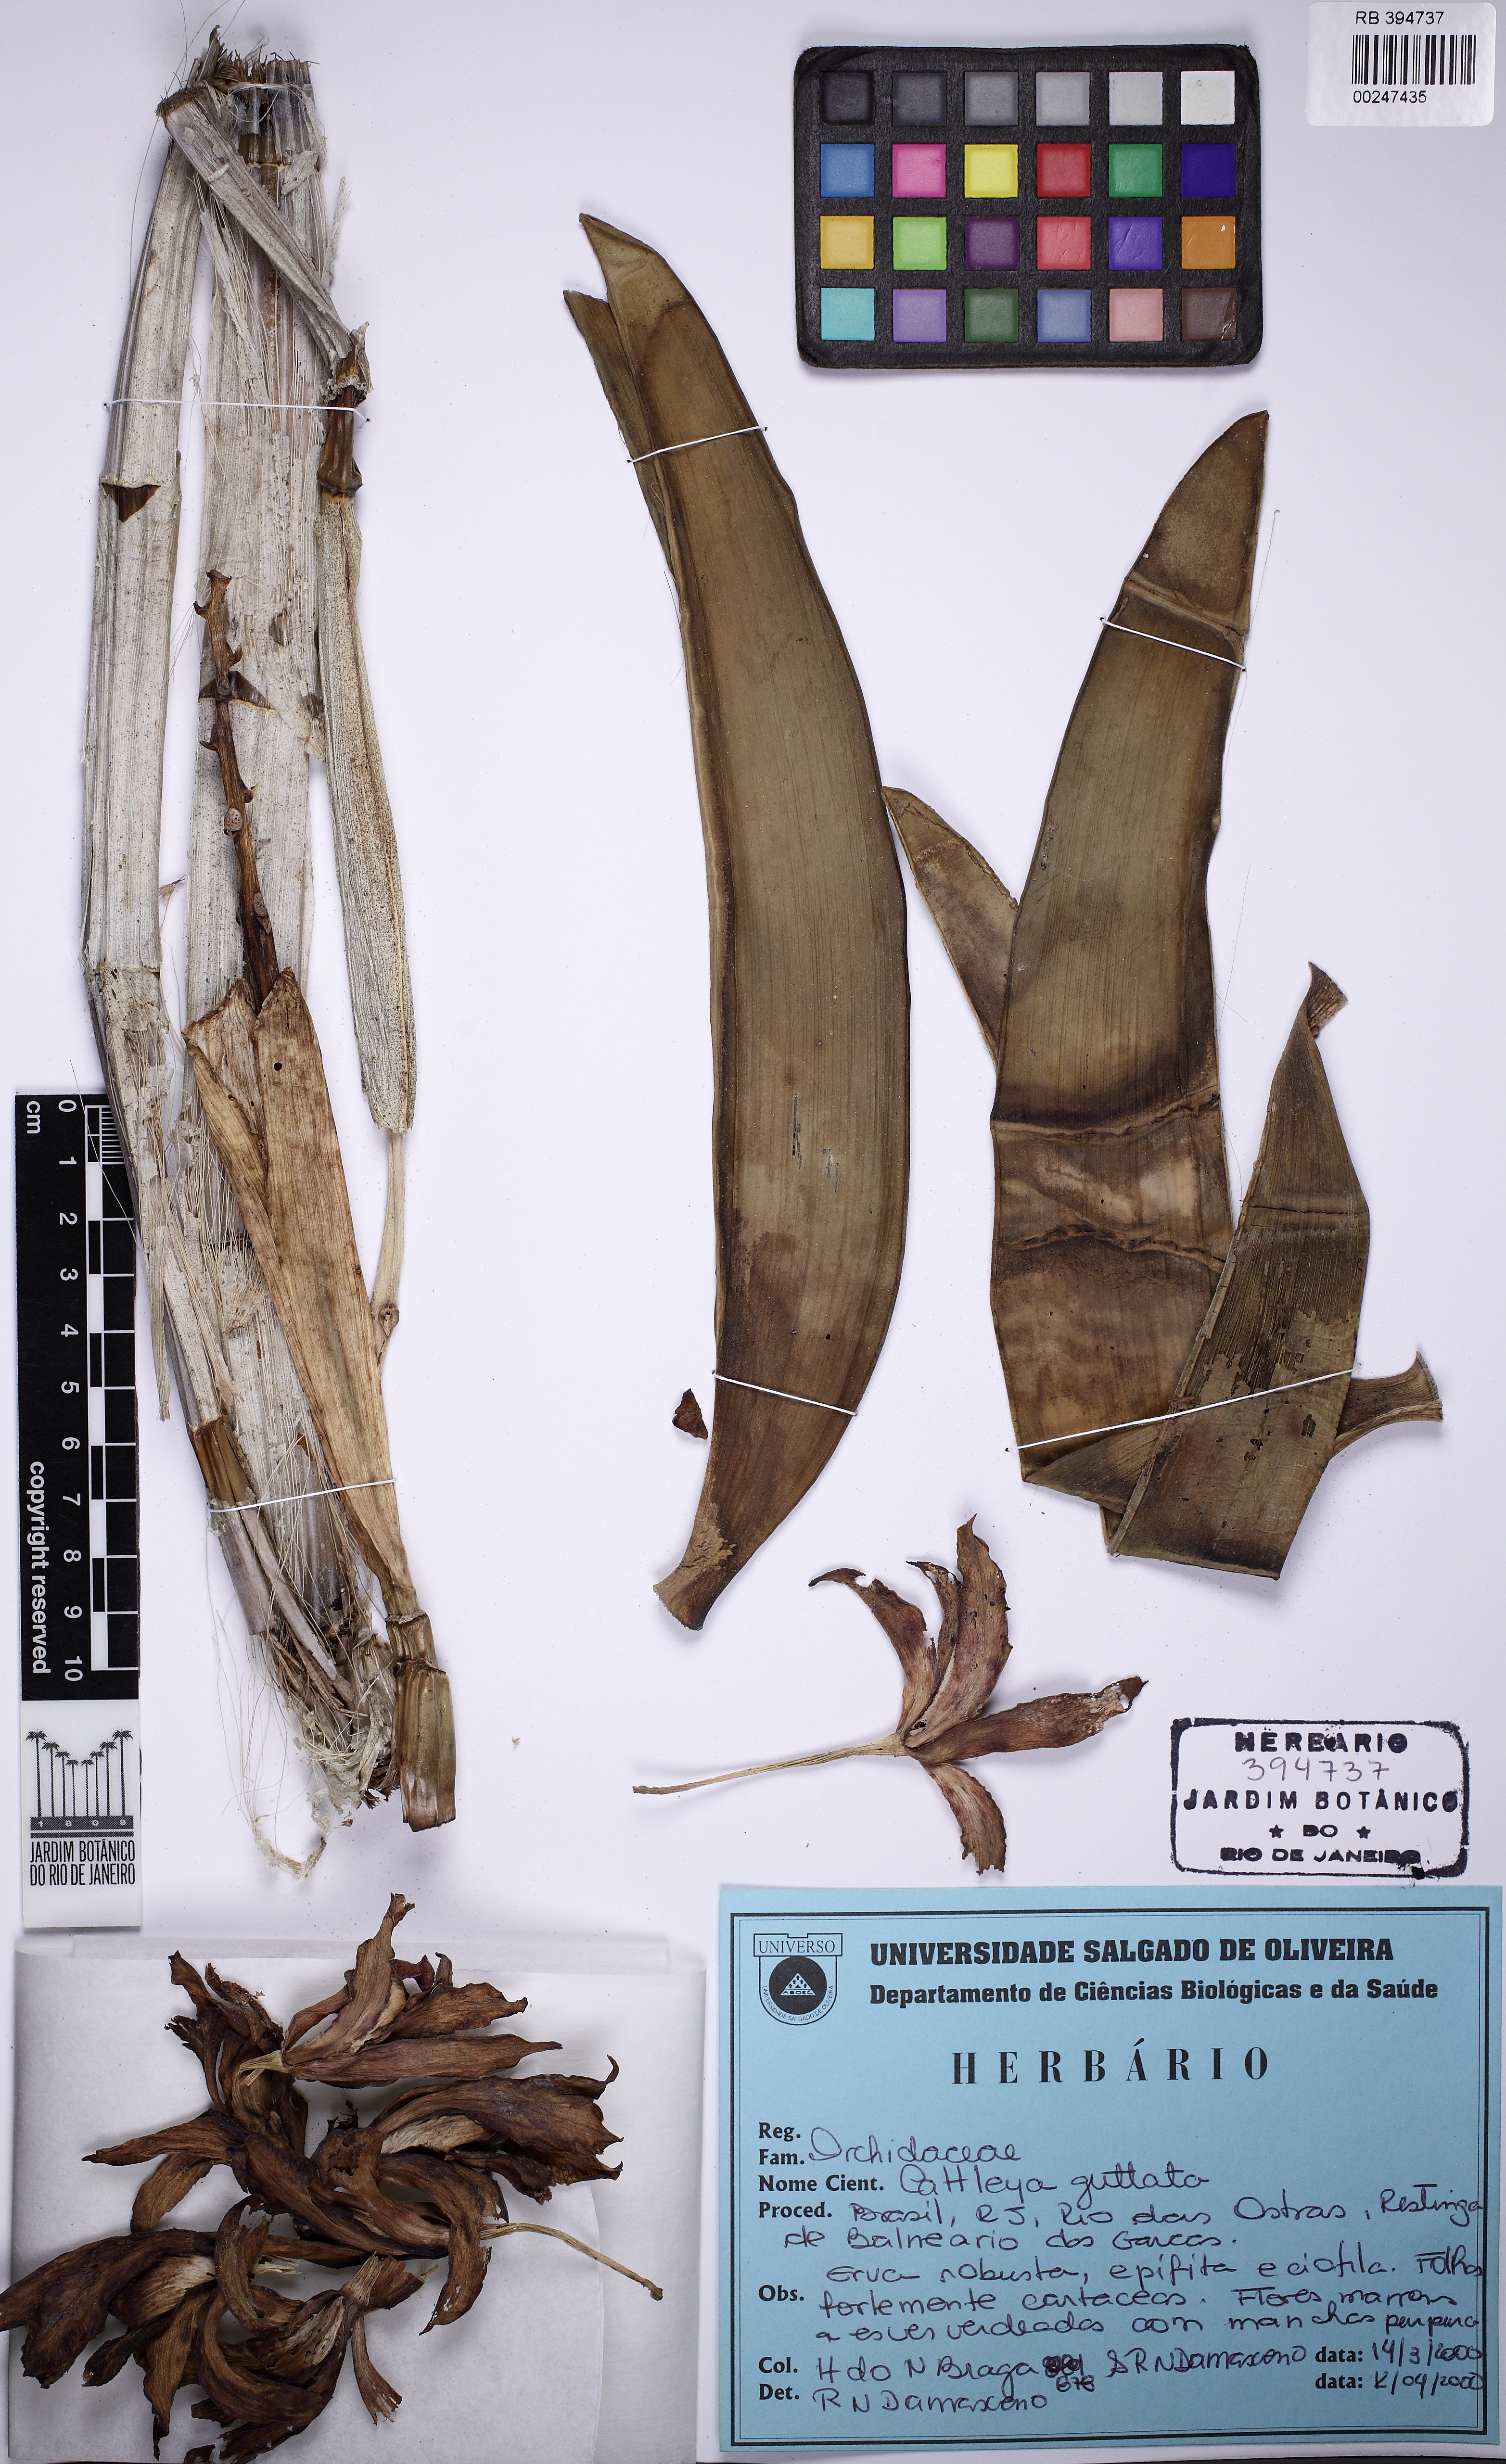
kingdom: Plantae
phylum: Tracheophyta
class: Liliopsida
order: Asparagales
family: Orchidaceae
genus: Cattleya
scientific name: Cattleya guttata
